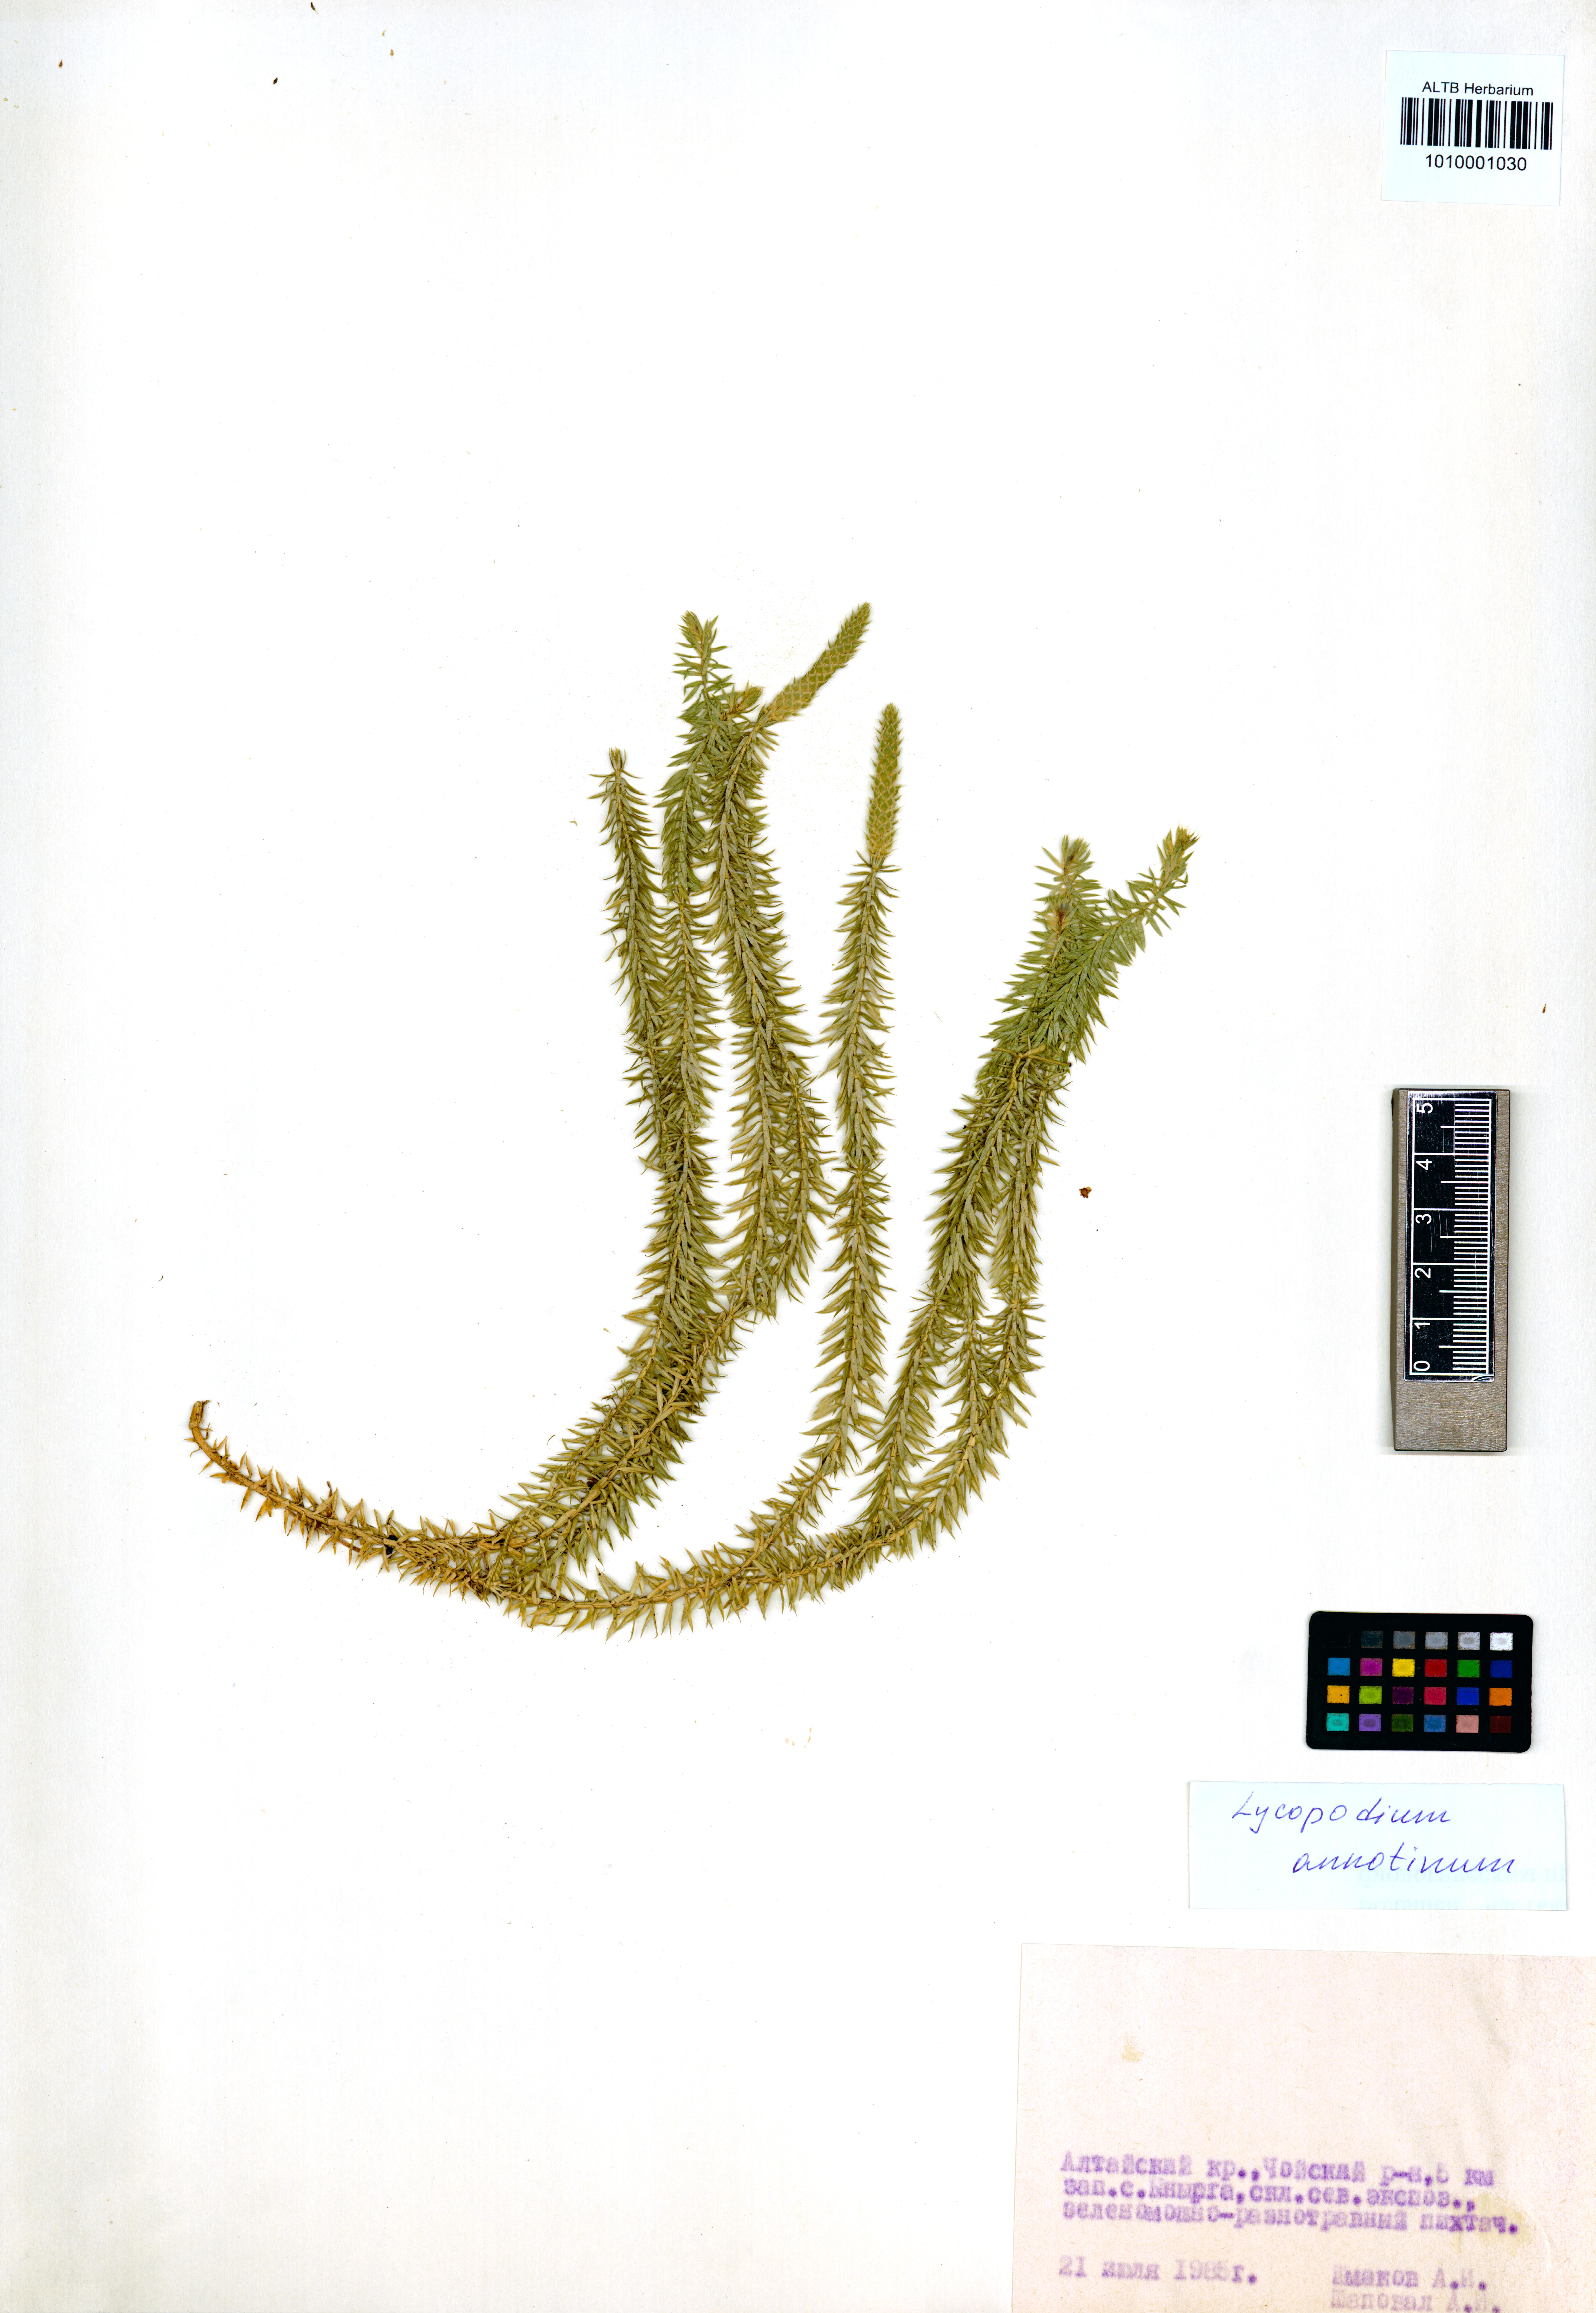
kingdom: Plantae
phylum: Tracheophyta
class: Lycopodiopsida
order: Lycopodiales
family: Lycopodiaceae
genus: Spinulum
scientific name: Spinulum annotinum
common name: Interrupted club-moss
